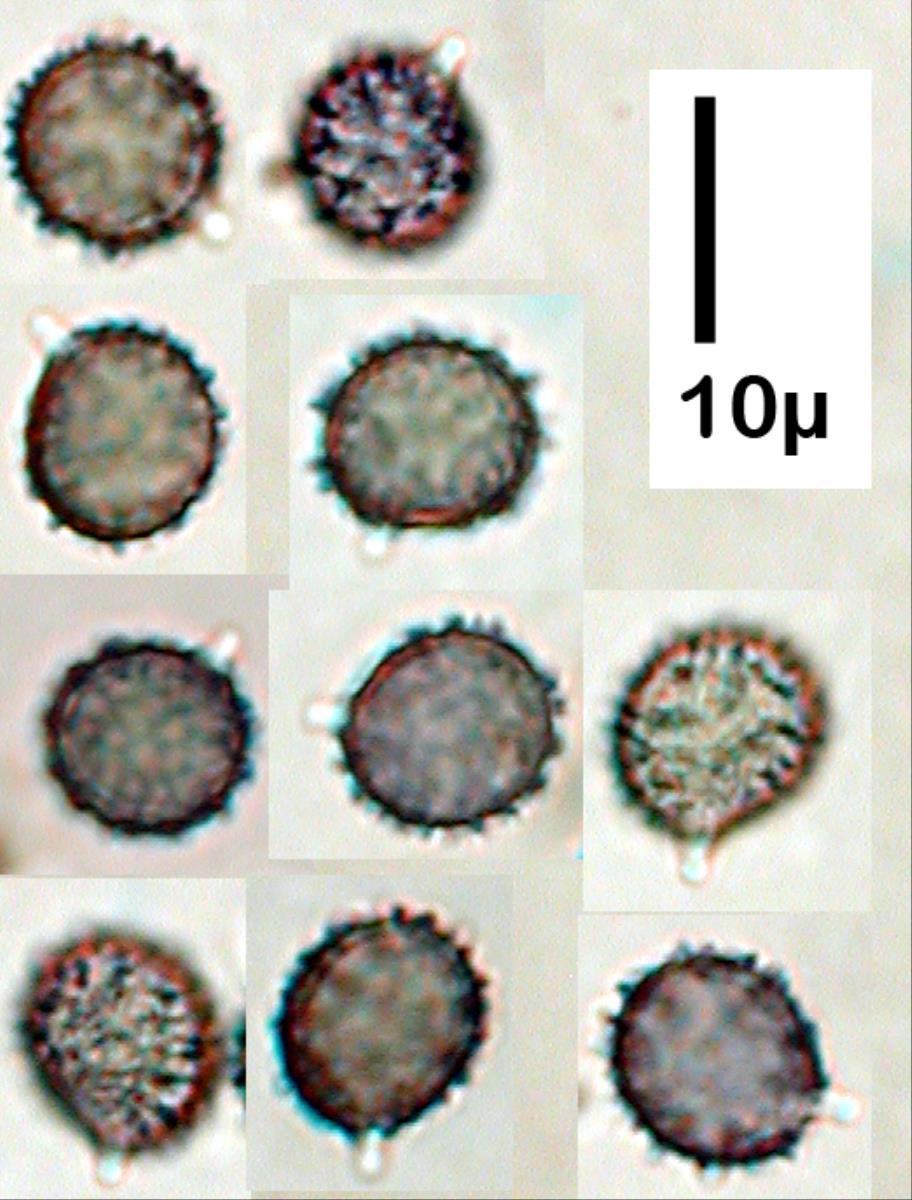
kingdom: Fungi
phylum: Basidiomycota
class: Agaricomycetes
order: Russulales
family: Russulaceae
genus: Russula
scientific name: Russula roseopileata
